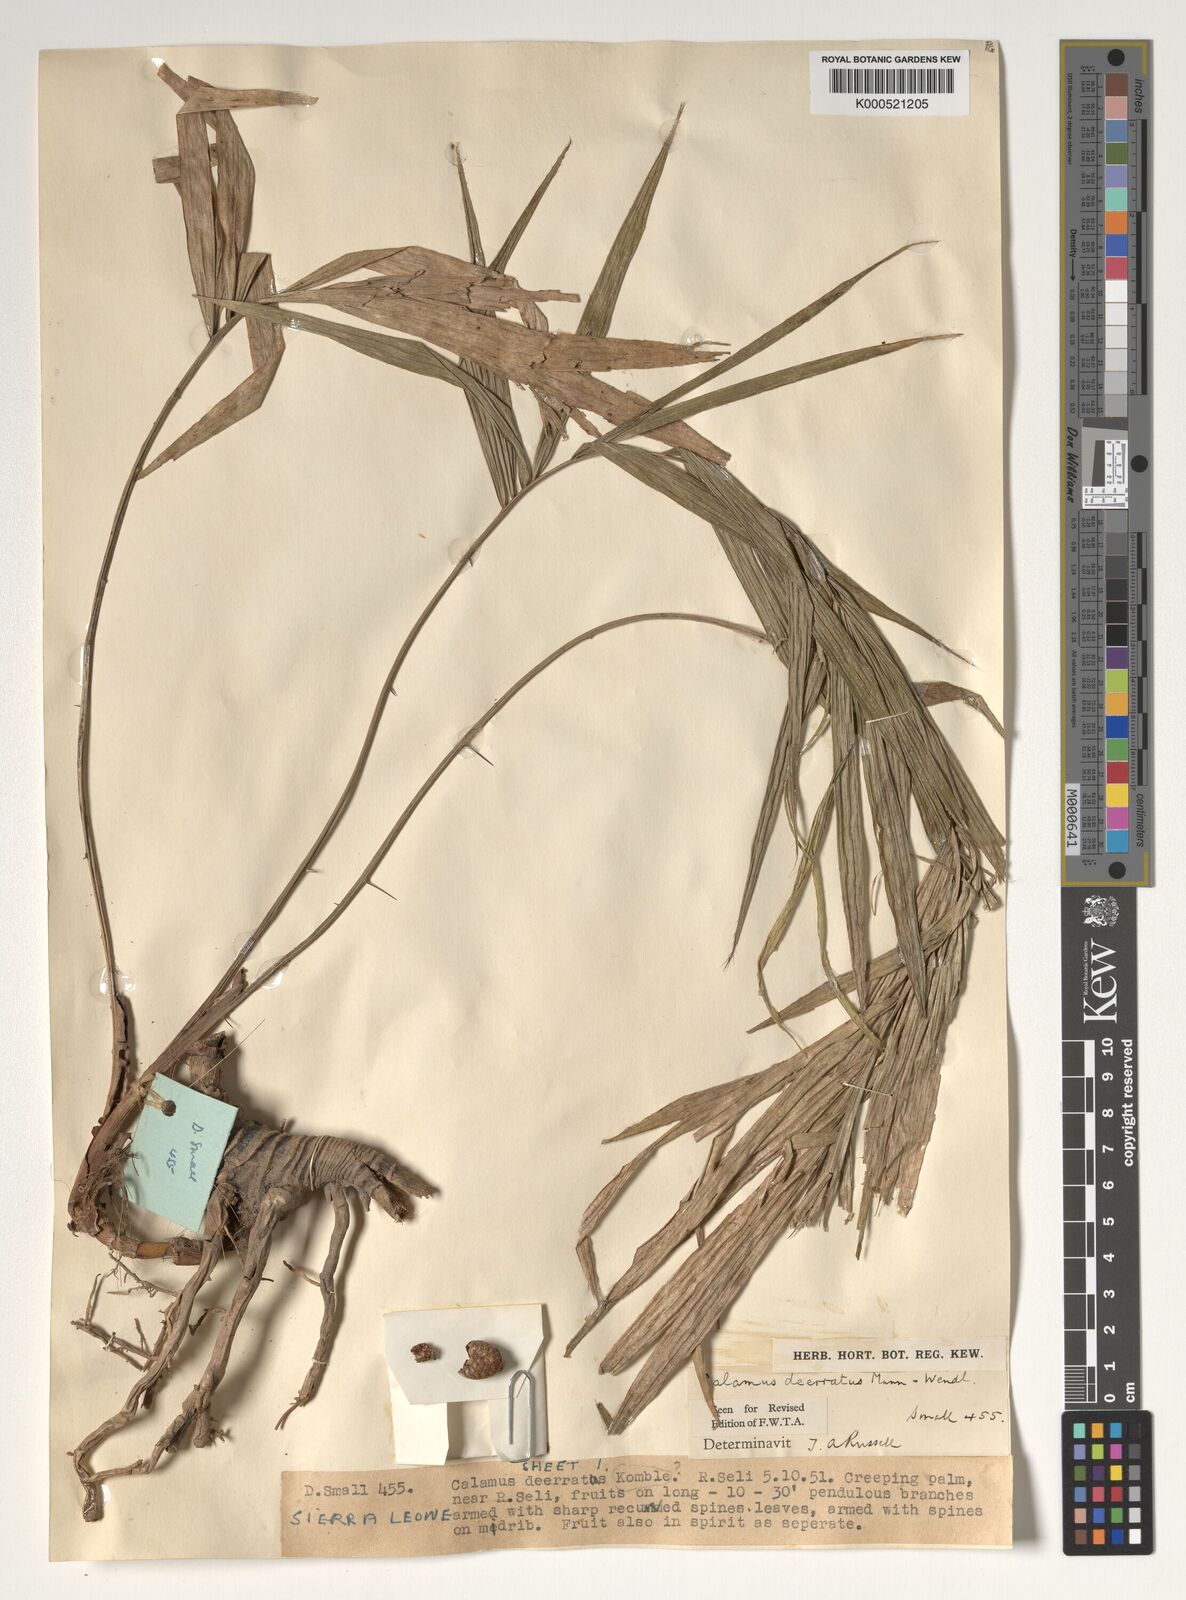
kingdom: Plantae
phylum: Tracheophyta
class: Liliopsida
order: Arecales
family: Arecaceae
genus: Calamus
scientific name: Calamus deerratus
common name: Rattan
